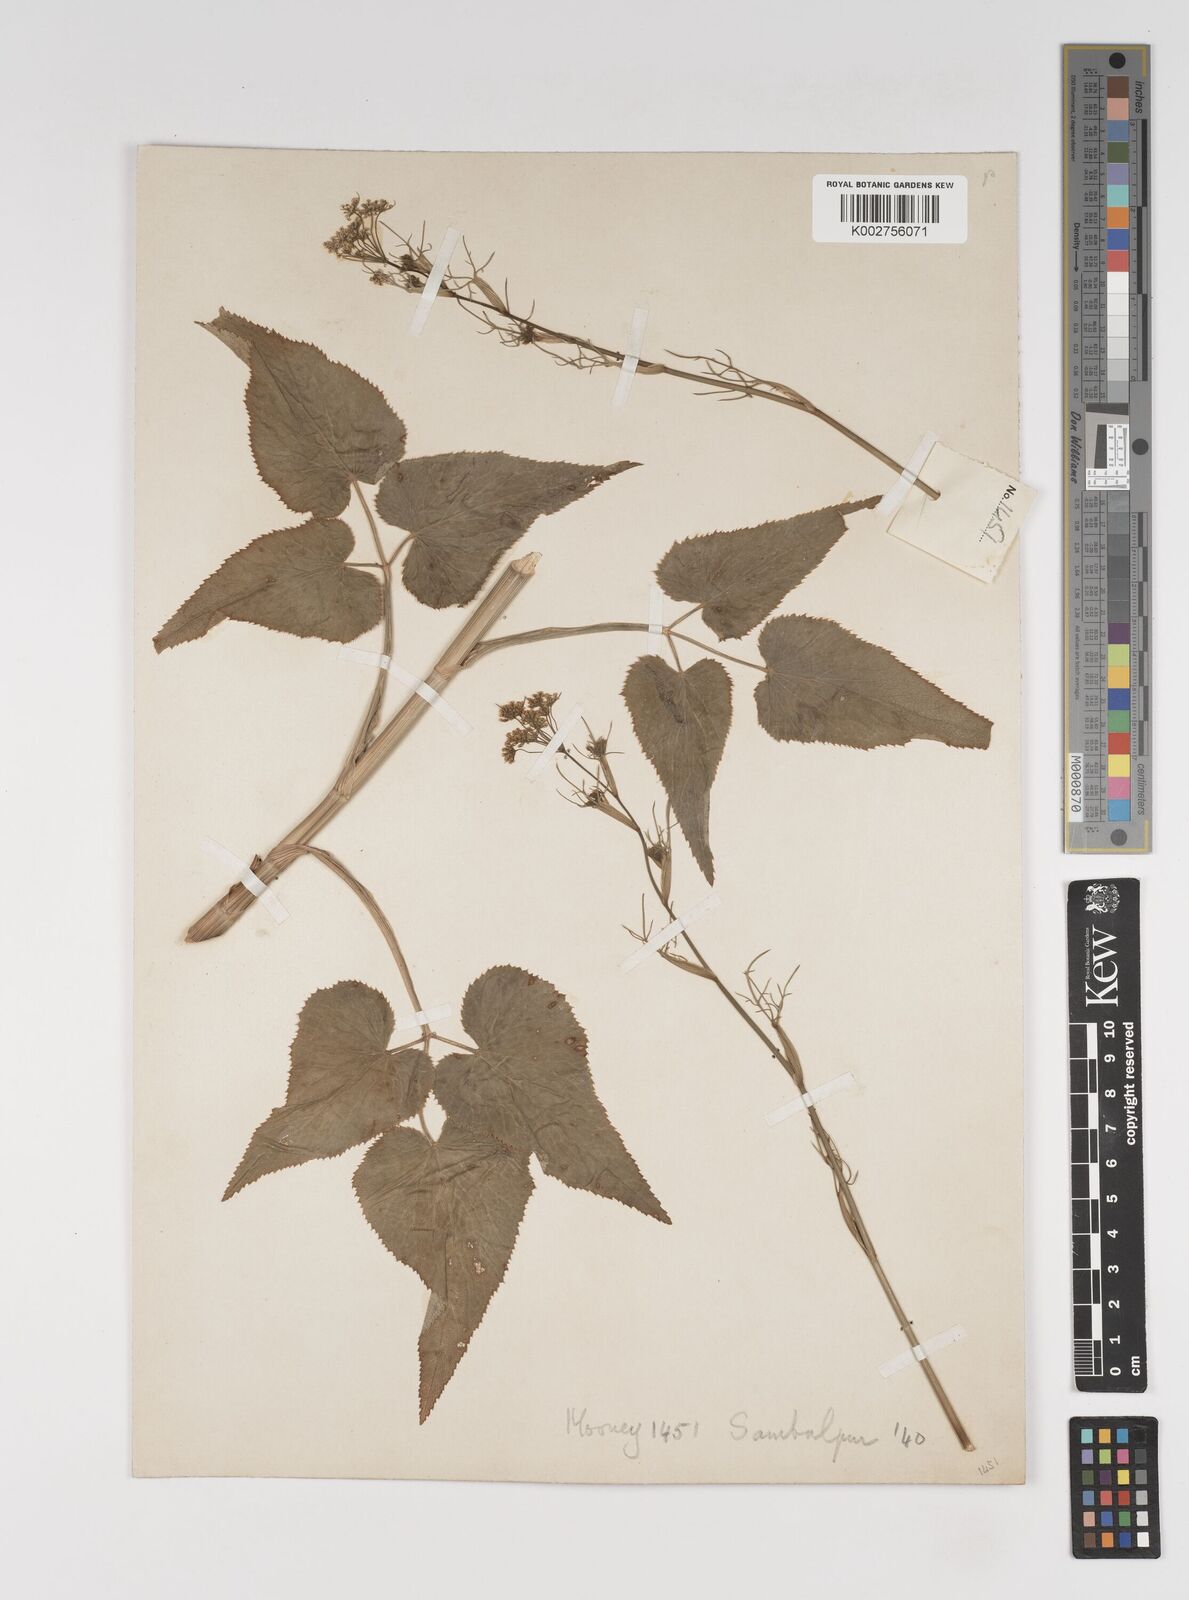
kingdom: Plantae
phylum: Tracheophyta
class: Magnoliopsida
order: Apiales
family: Apiaceae
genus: Pimpinella
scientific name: Pimpinella diversifolia
